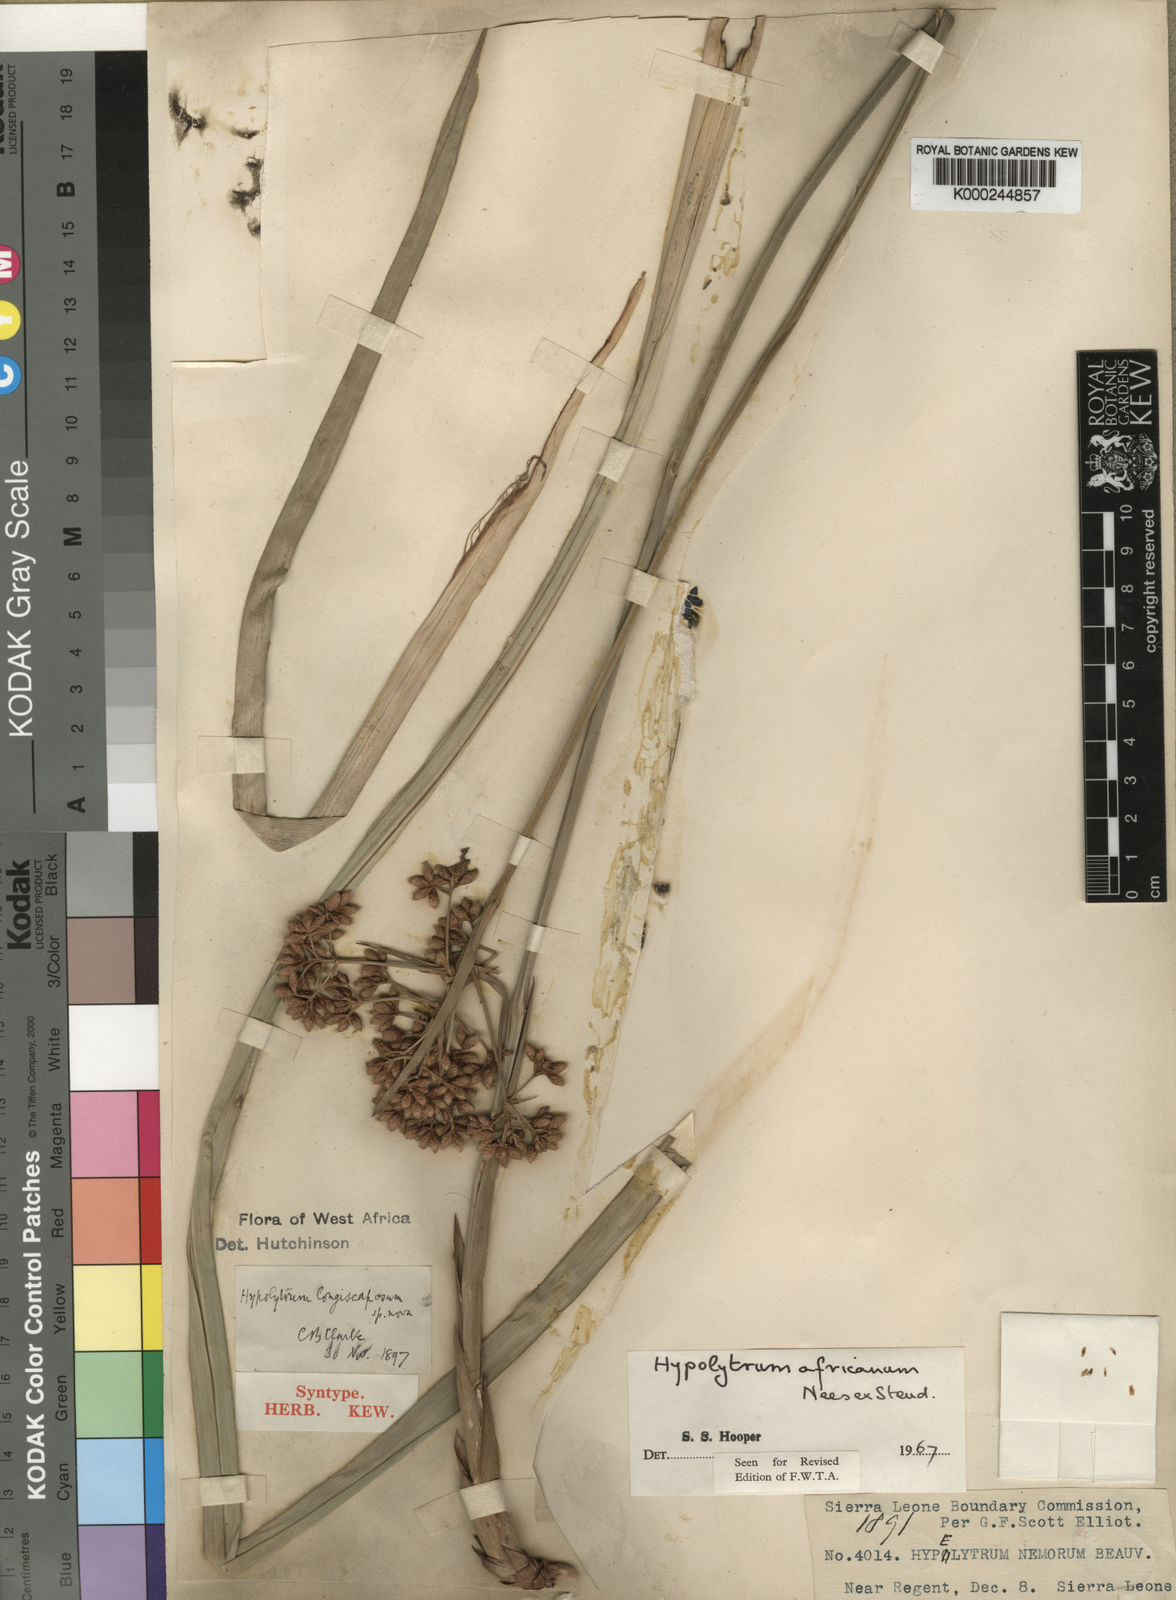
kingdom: Plantae
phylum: Tracheophyta
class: Liliopsida
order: Poales
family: Cyperaceae
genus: Hypolytrum
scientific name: Hypolytrum africanum
